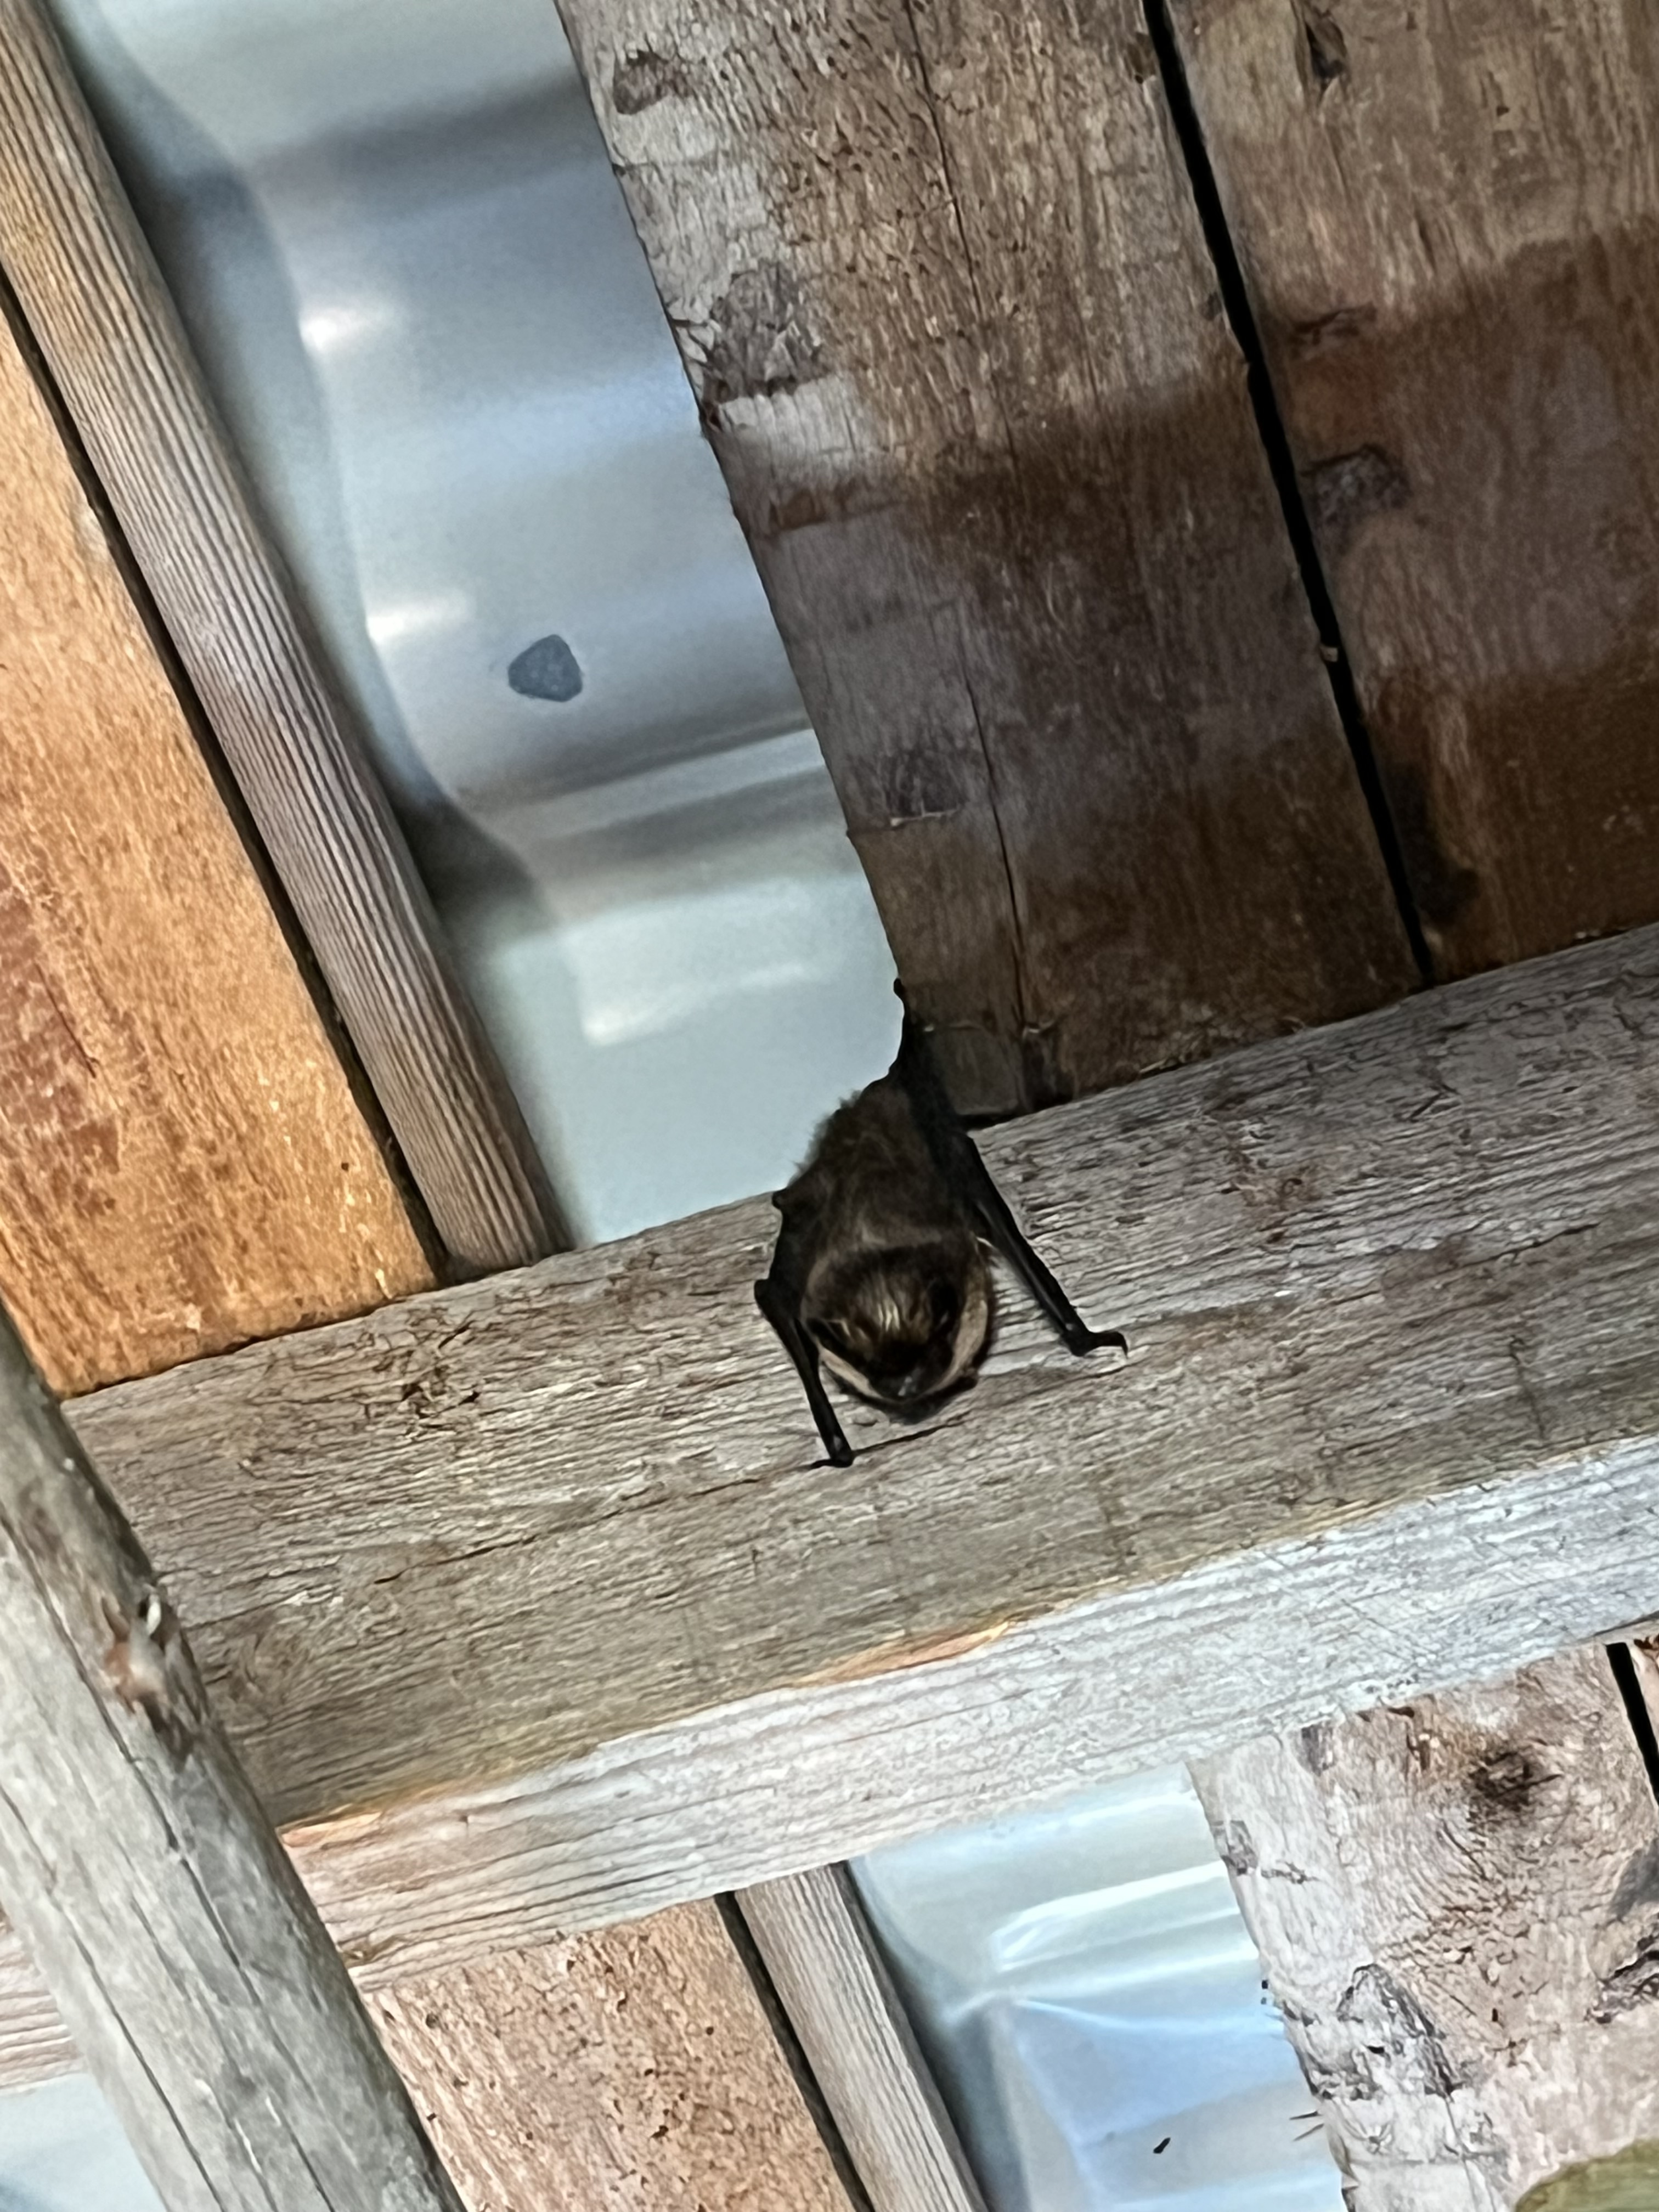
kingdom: Animalia
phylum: Chordata
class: Mammalia
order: Chiroptera
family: Vespertilionidae
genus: Eptesicus
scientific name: Eptesicus nilssonii
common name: Northern bat
